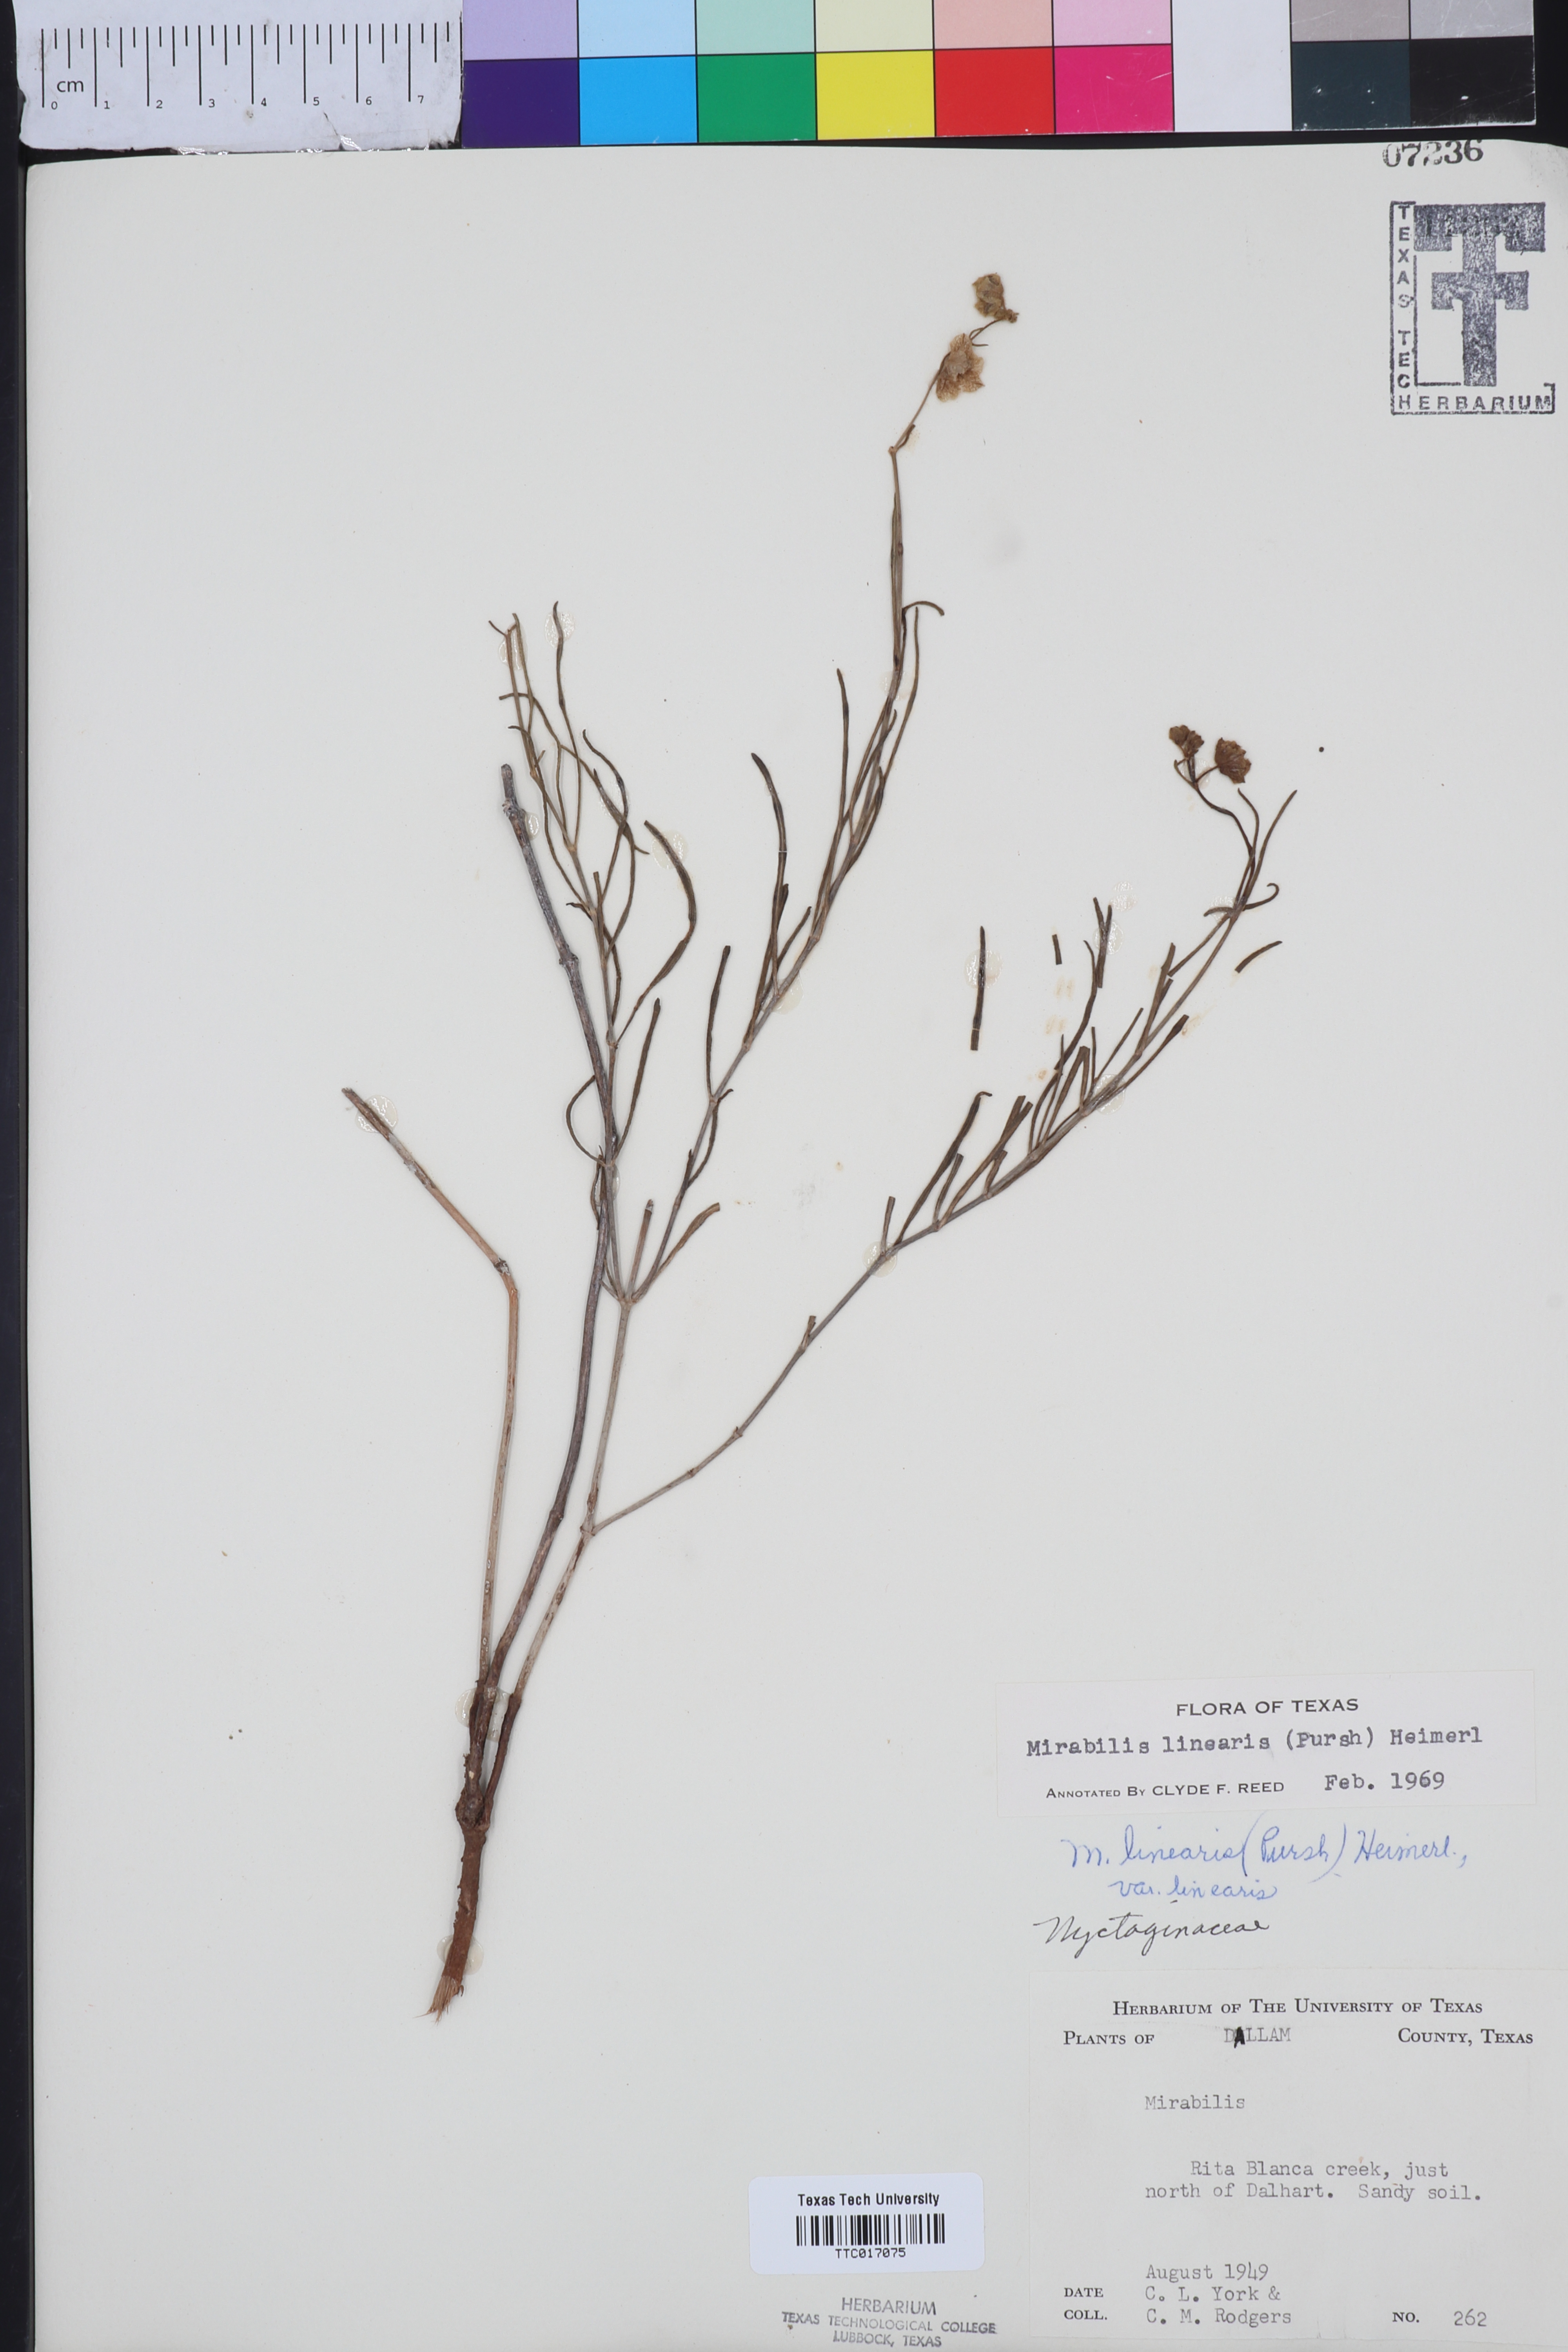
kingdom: Plantae
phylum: Tracheophyta
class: Magnoliopsida
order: Caryophyllales
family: Nyctaginaceae
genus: Mirabilis
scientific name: Mirabilis linearis
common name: Linear-leaved four-o'clock
